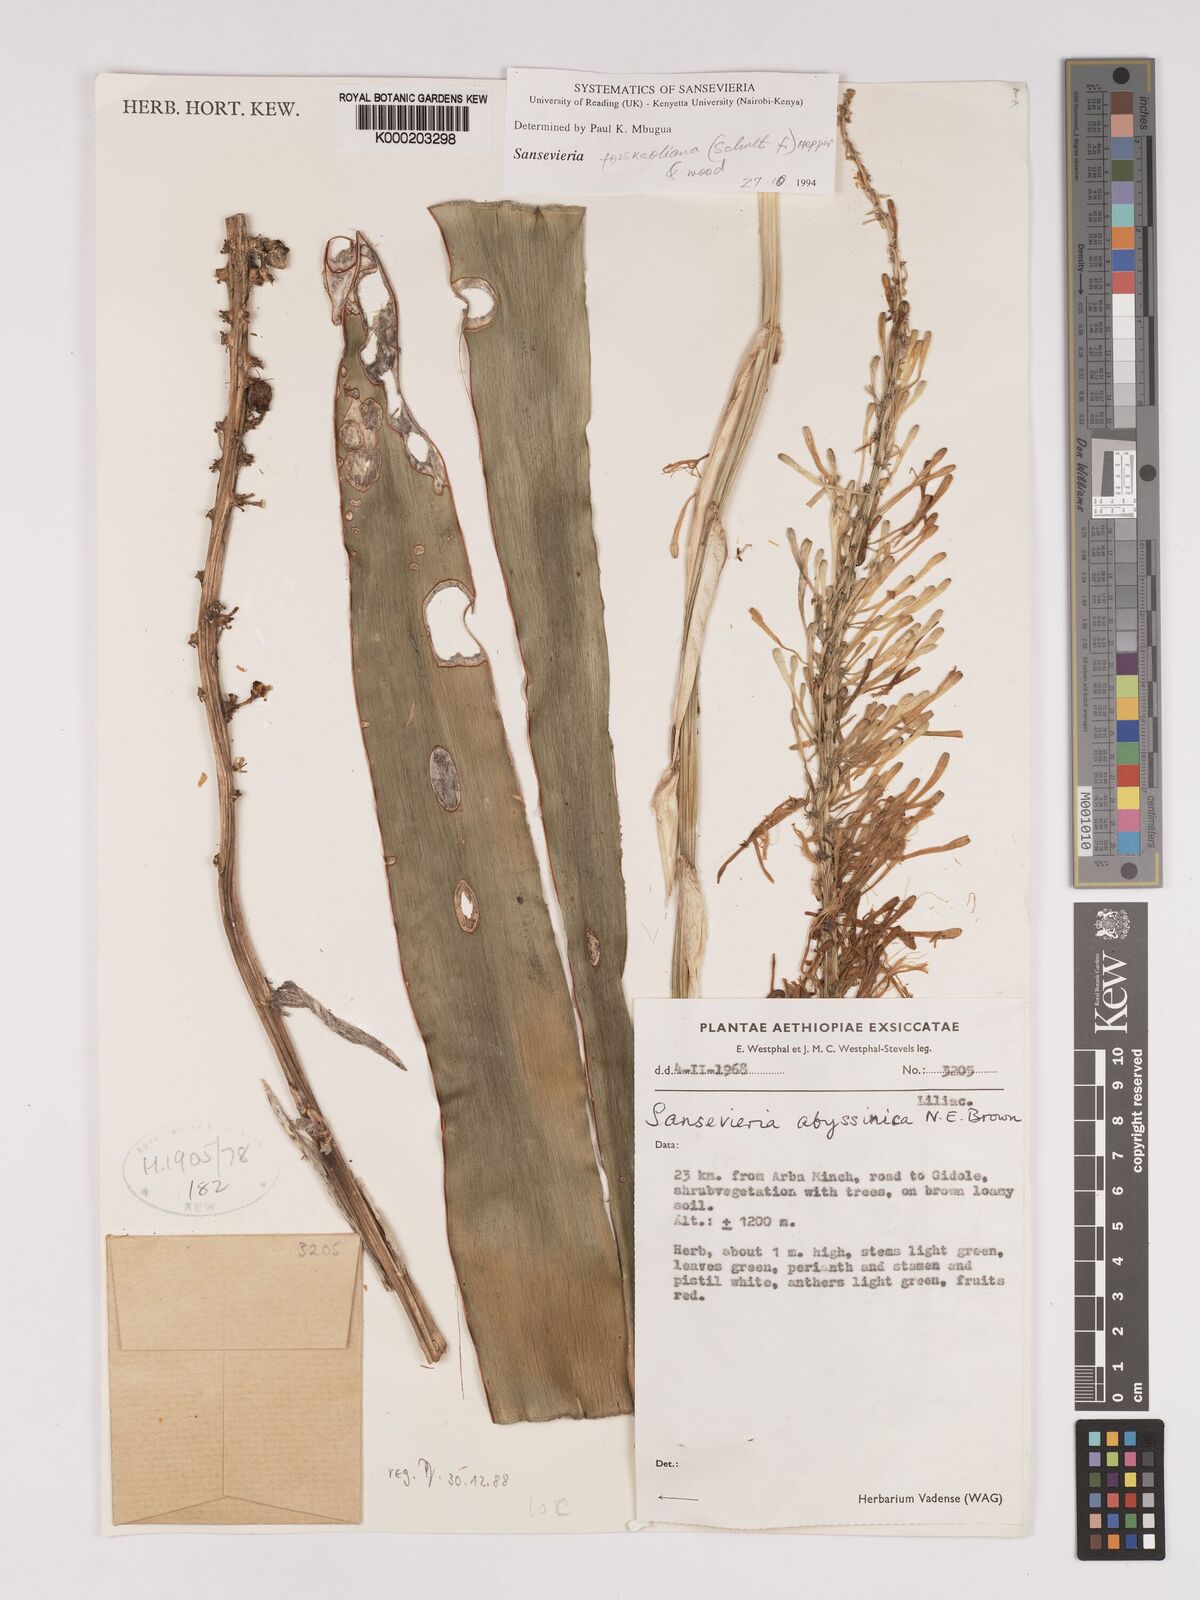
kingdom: Plantae
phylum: Tracheophyta
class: Liliopsida
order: Asparagales
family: Asparagaceae
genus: Dracaena
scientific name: Dracaena forskaliana
